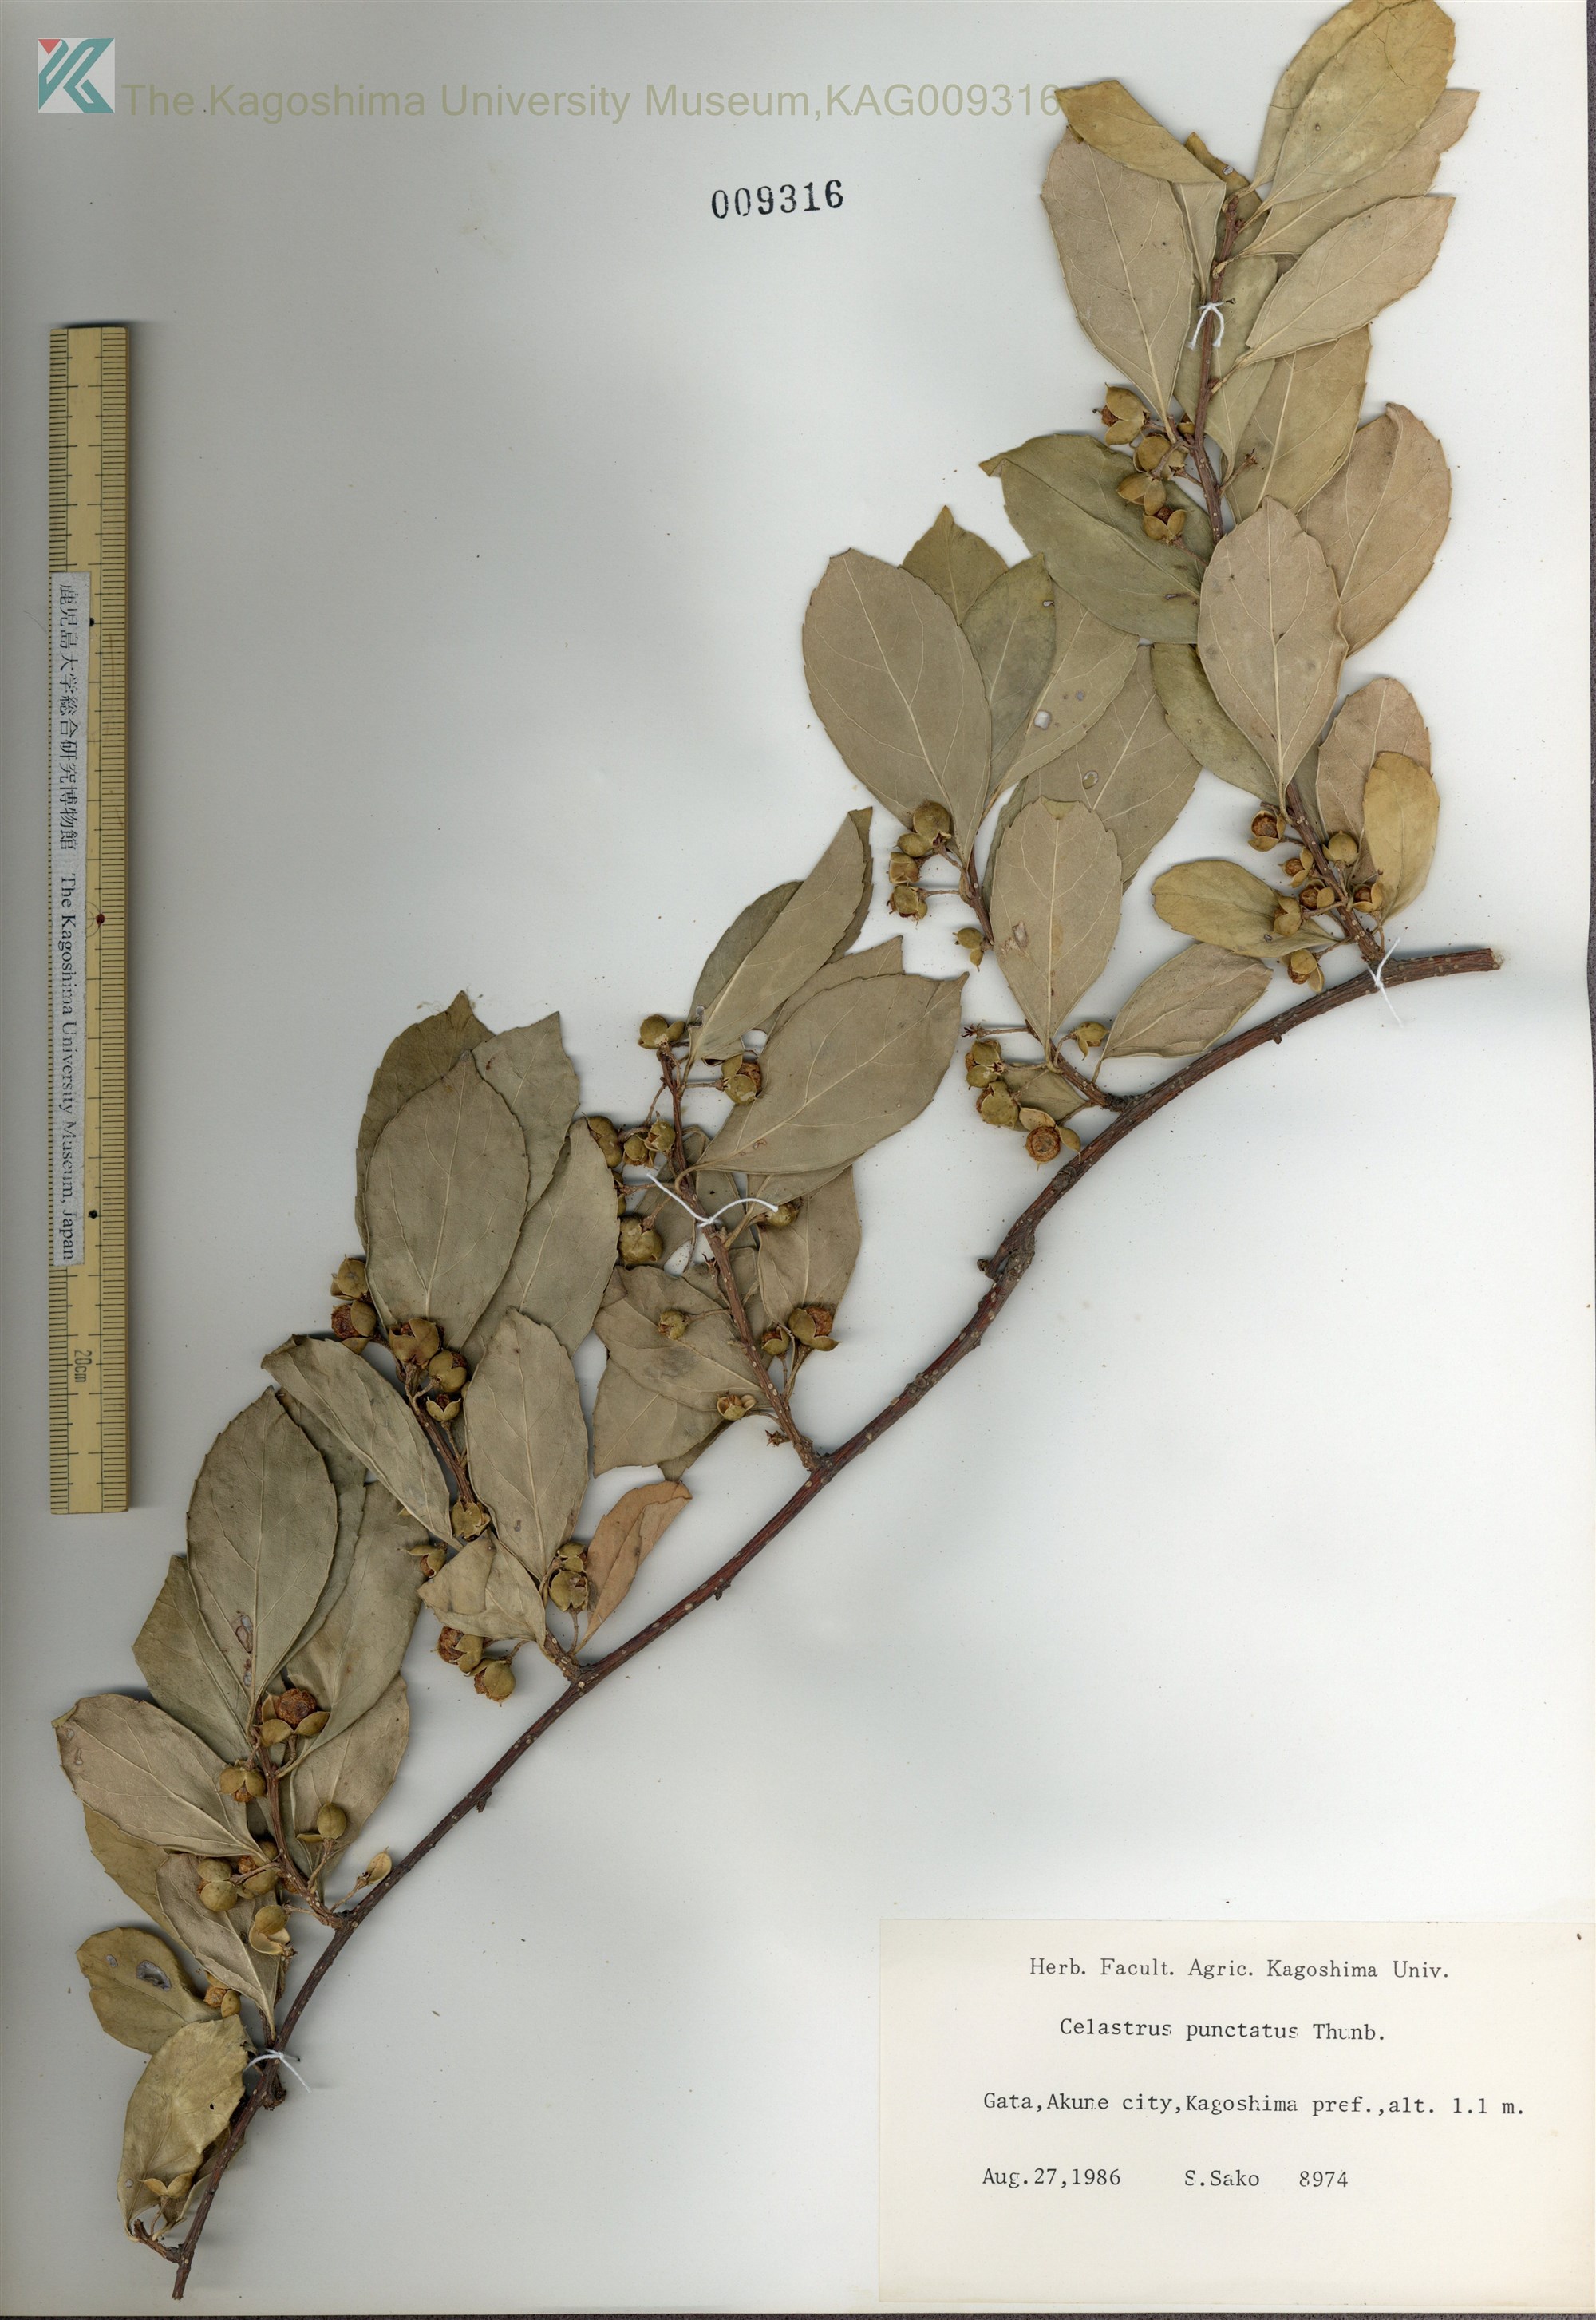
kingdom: Plantae
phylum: Tracheophyta
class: Magnoliopsida
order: Celastrales
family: Celastraceae
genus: Celastrus
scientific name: Celastrus punctatus
